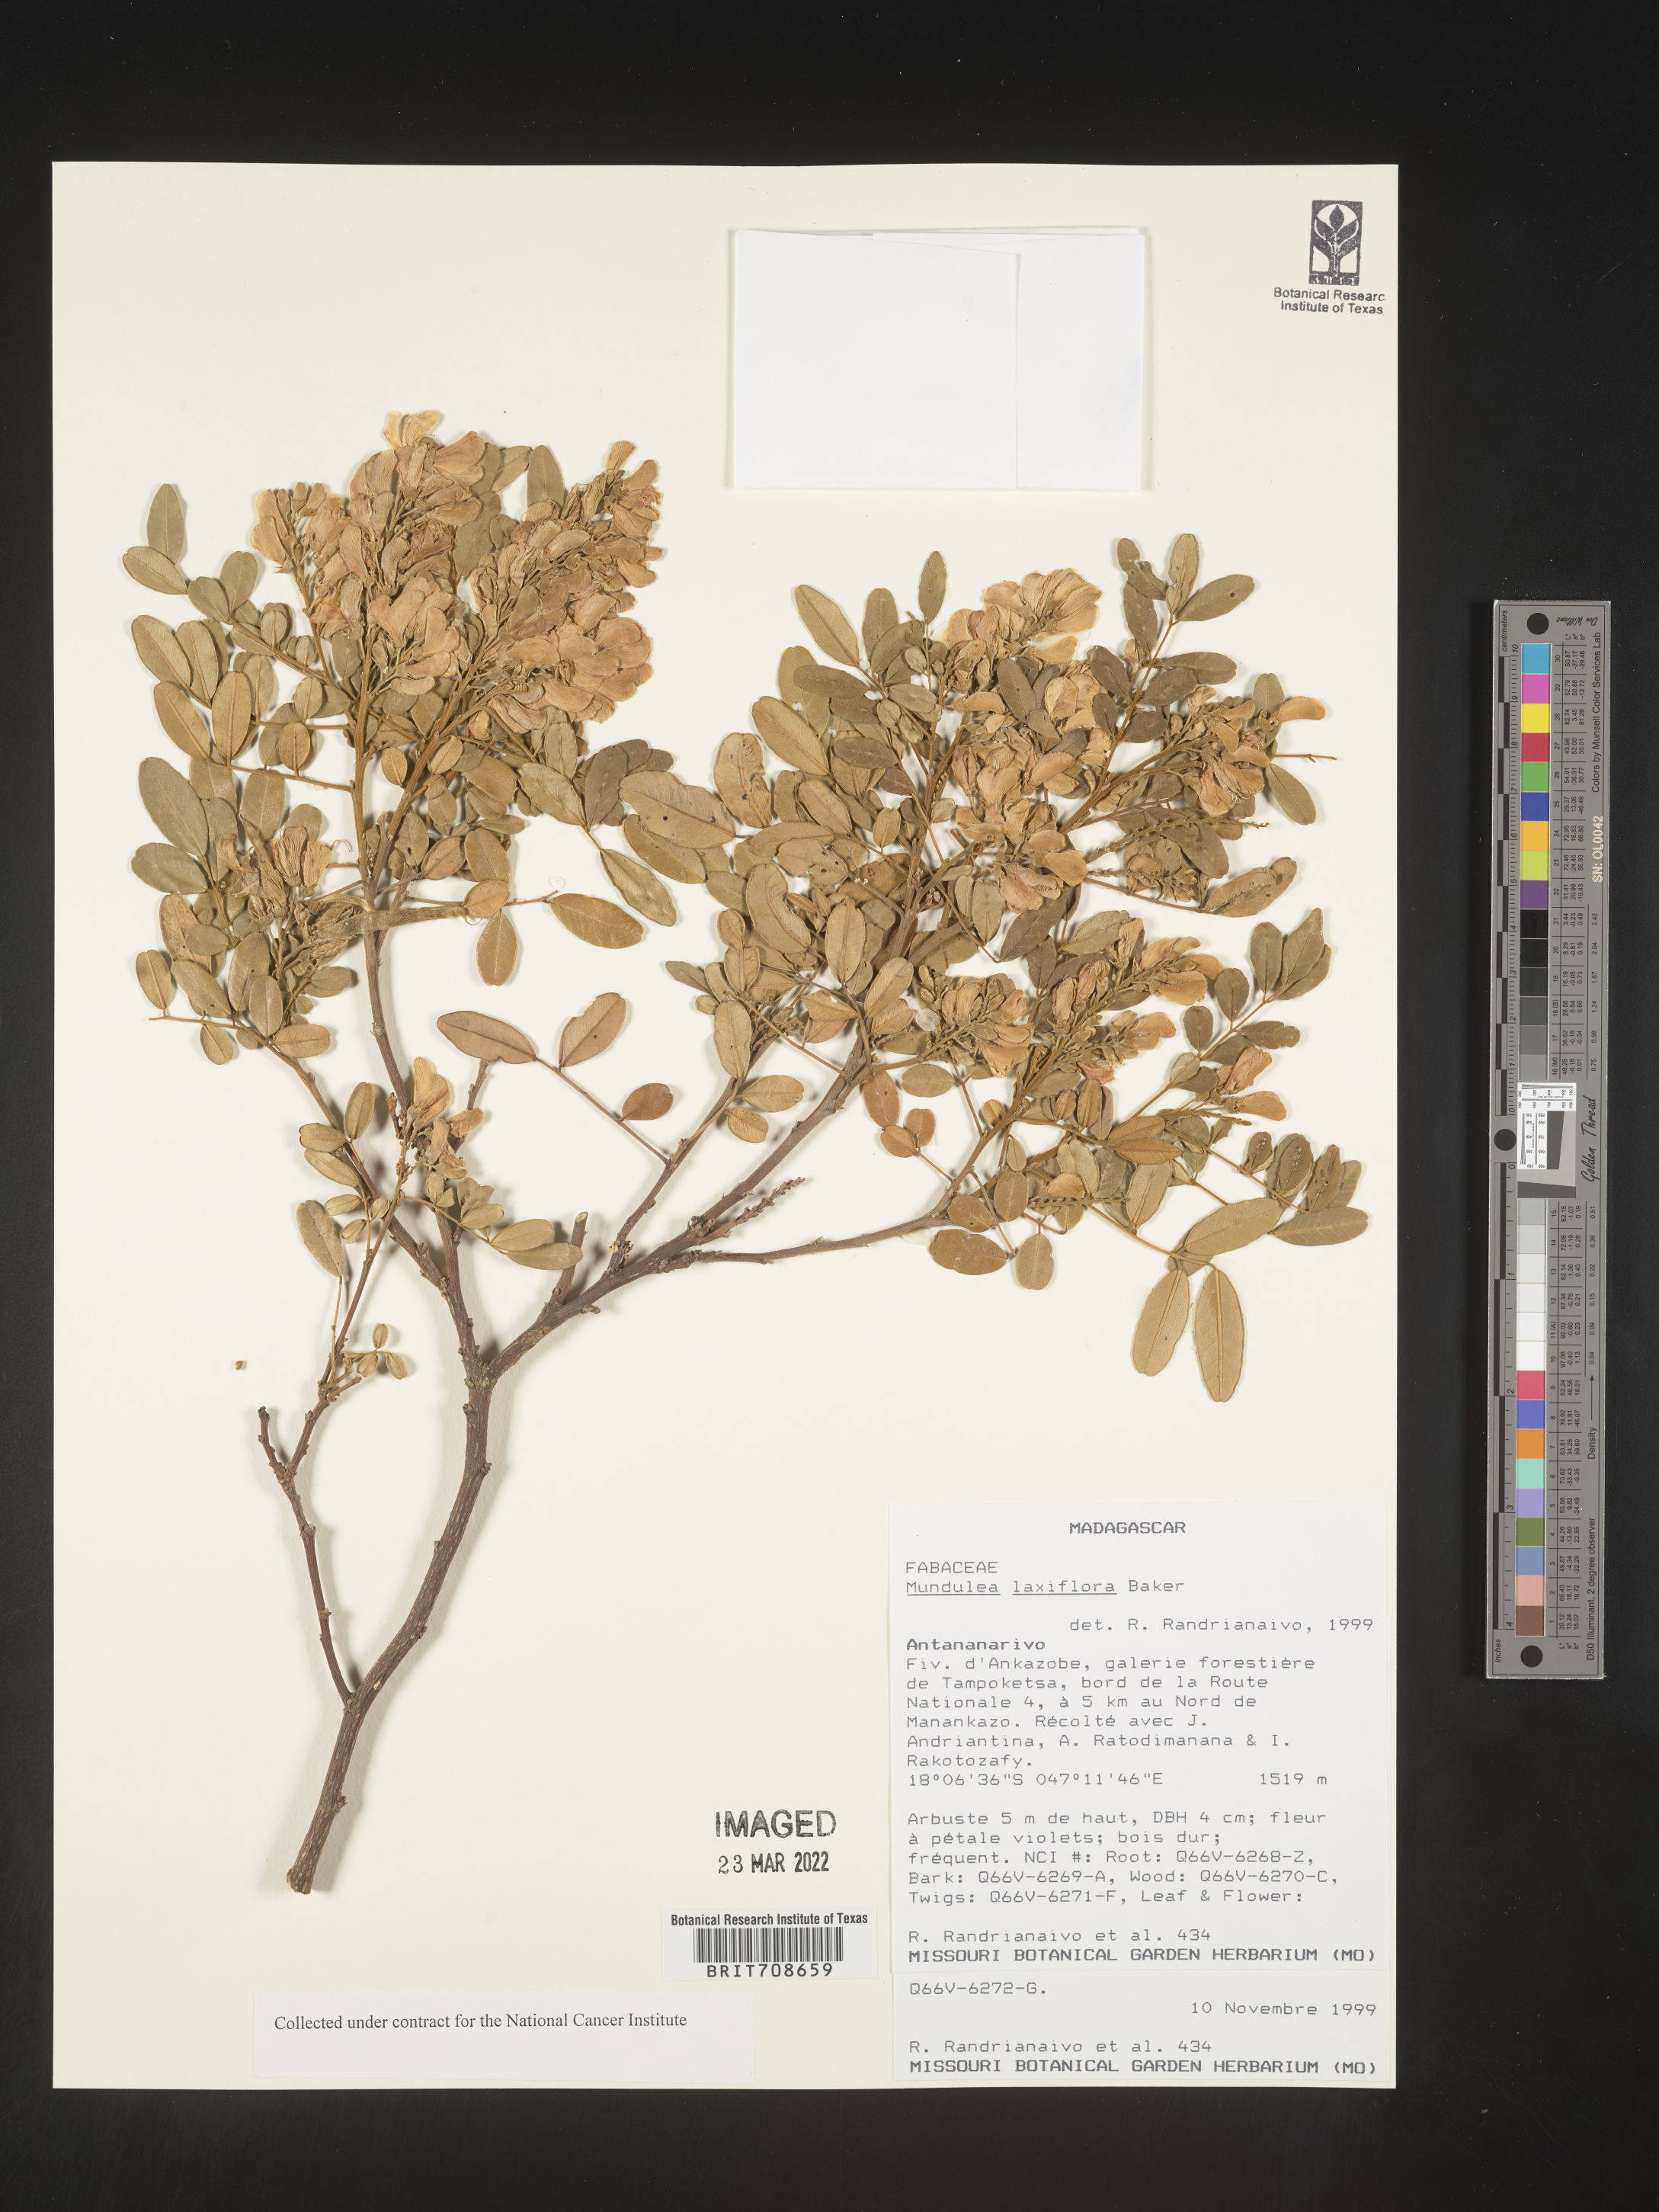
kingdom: Plantae
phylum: Tracheophyta
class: Magnoliopsida
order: Fabales
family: Fabaceae
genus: Mundulea
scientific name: Mundulea
